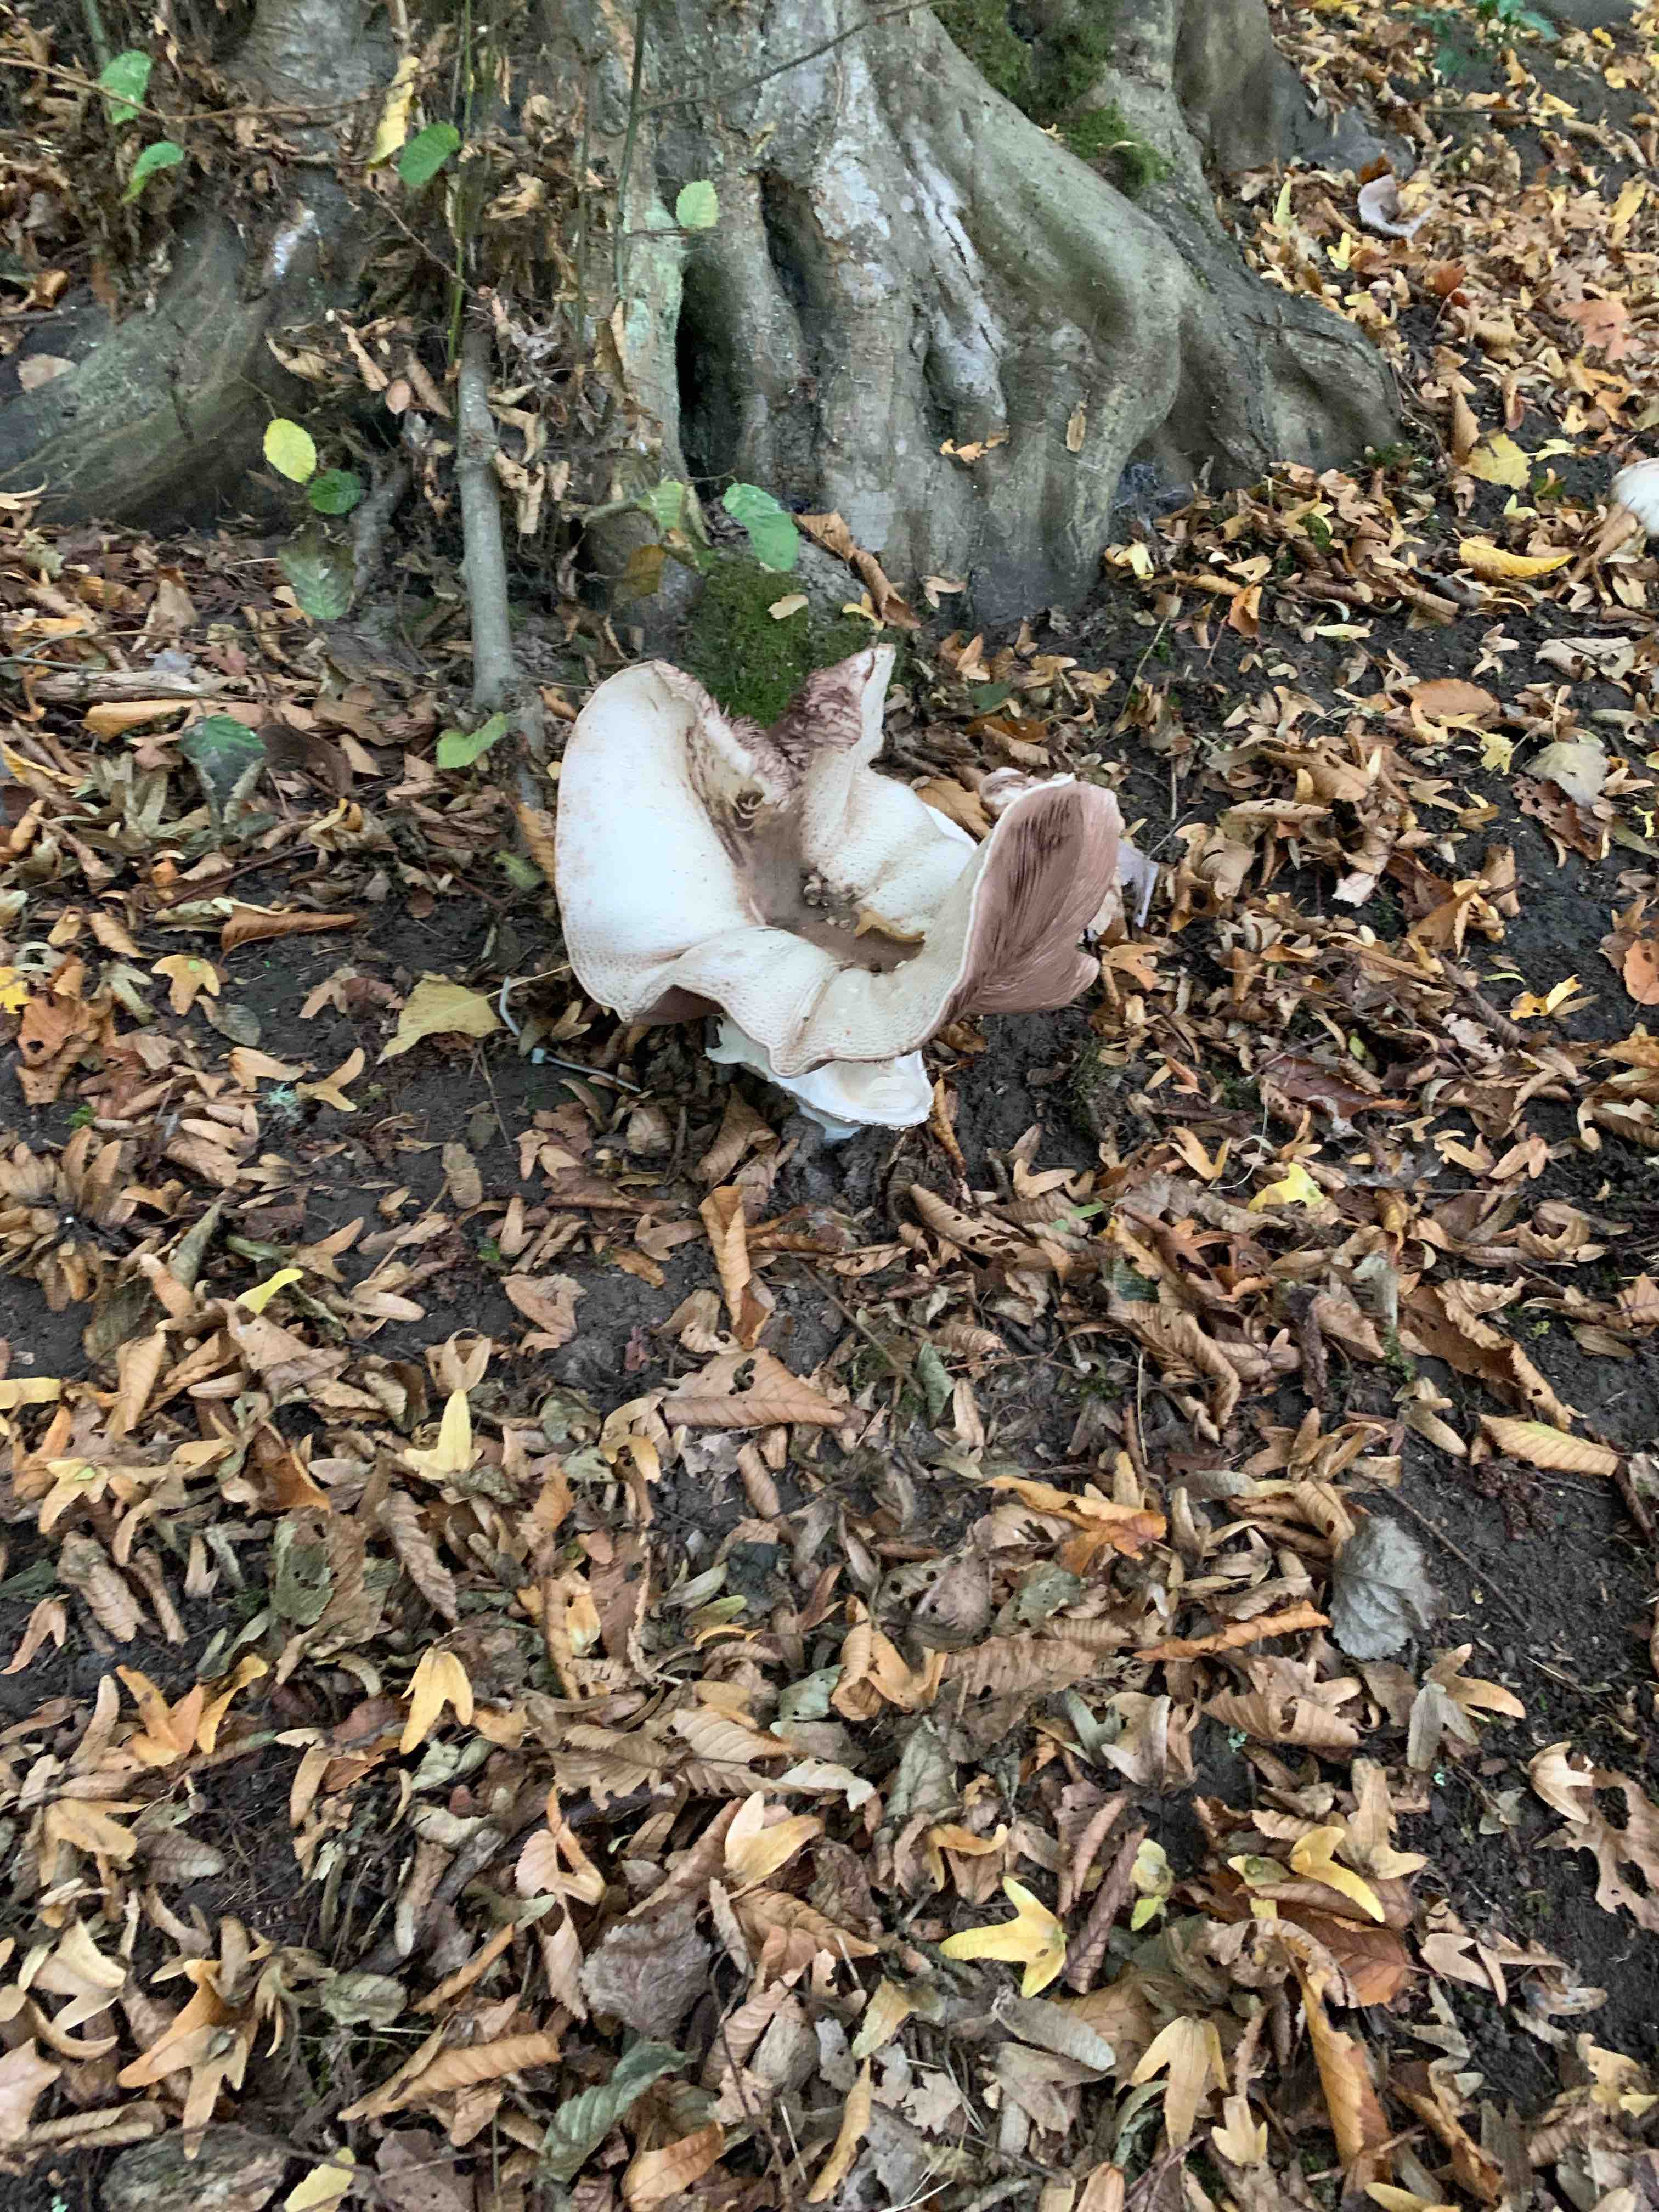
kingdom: Fungi
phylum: Basidiomycota
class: Agaricomycetes
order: Agaricales
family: Agaricaceae
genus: Agaricus
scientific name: Agaricus
